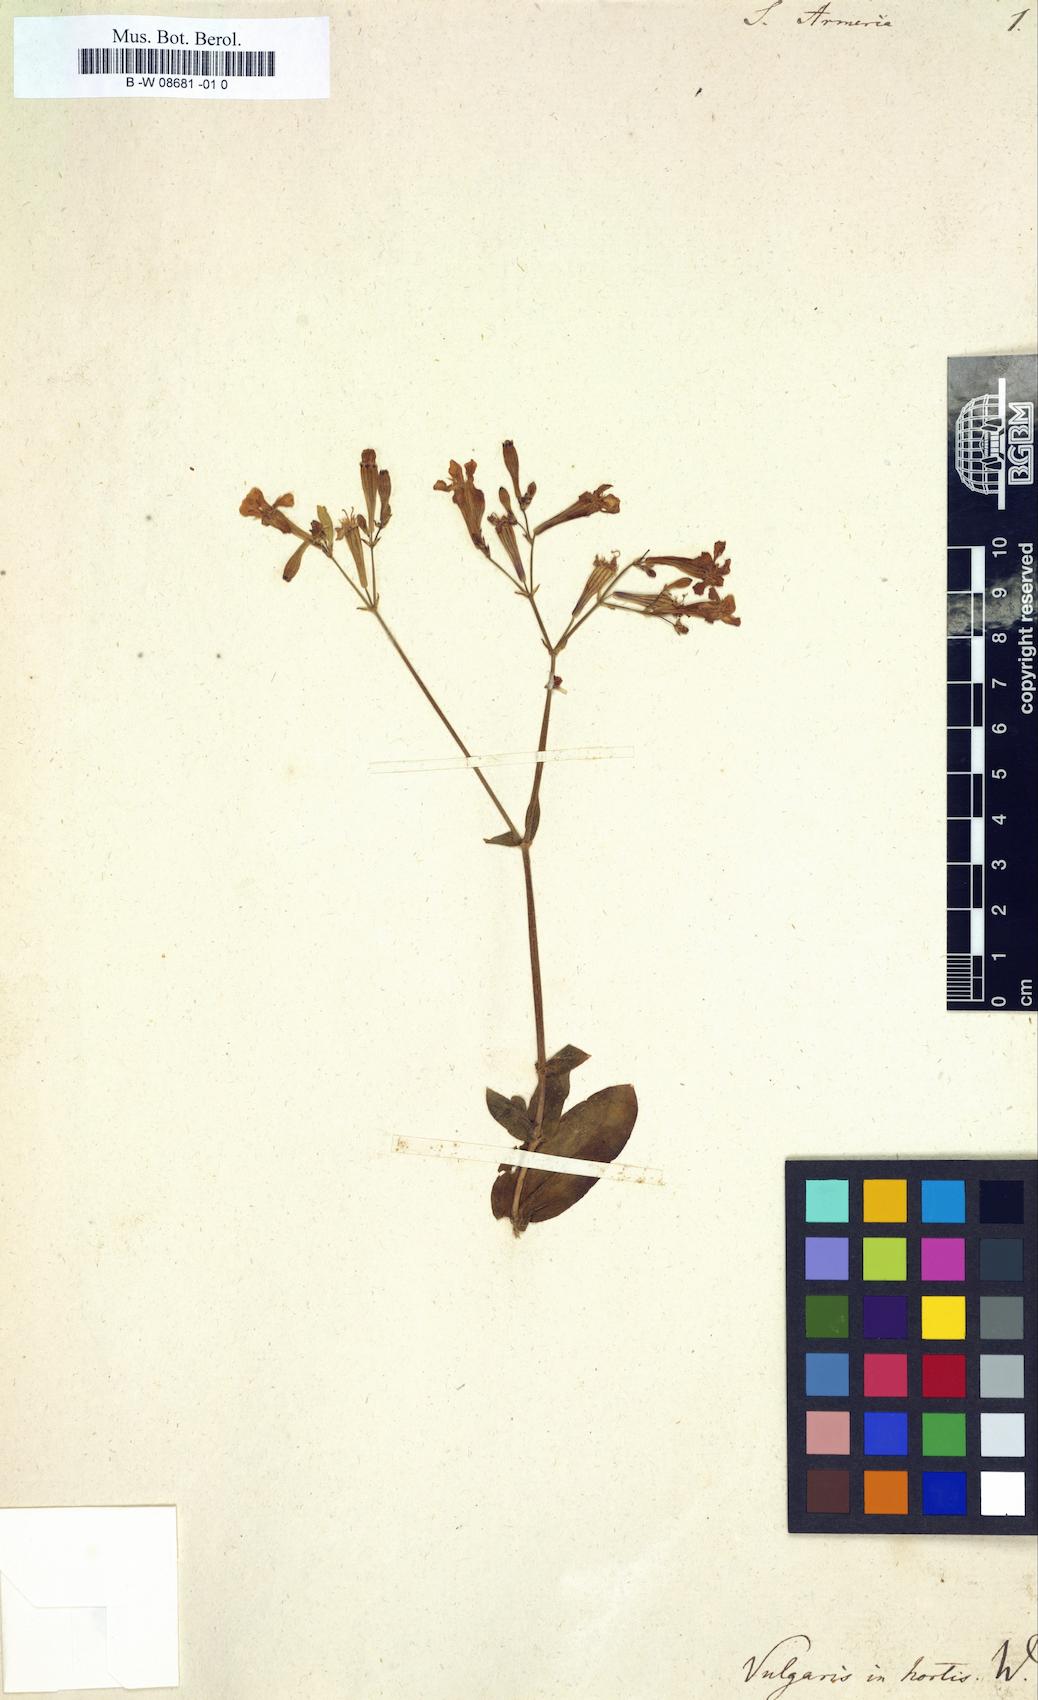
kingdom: Plantae
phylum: Tracheophyta
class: Magnoliopsida
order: Caryophyllales
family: Caryophyllaceae
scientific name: Caryophyllaceae
